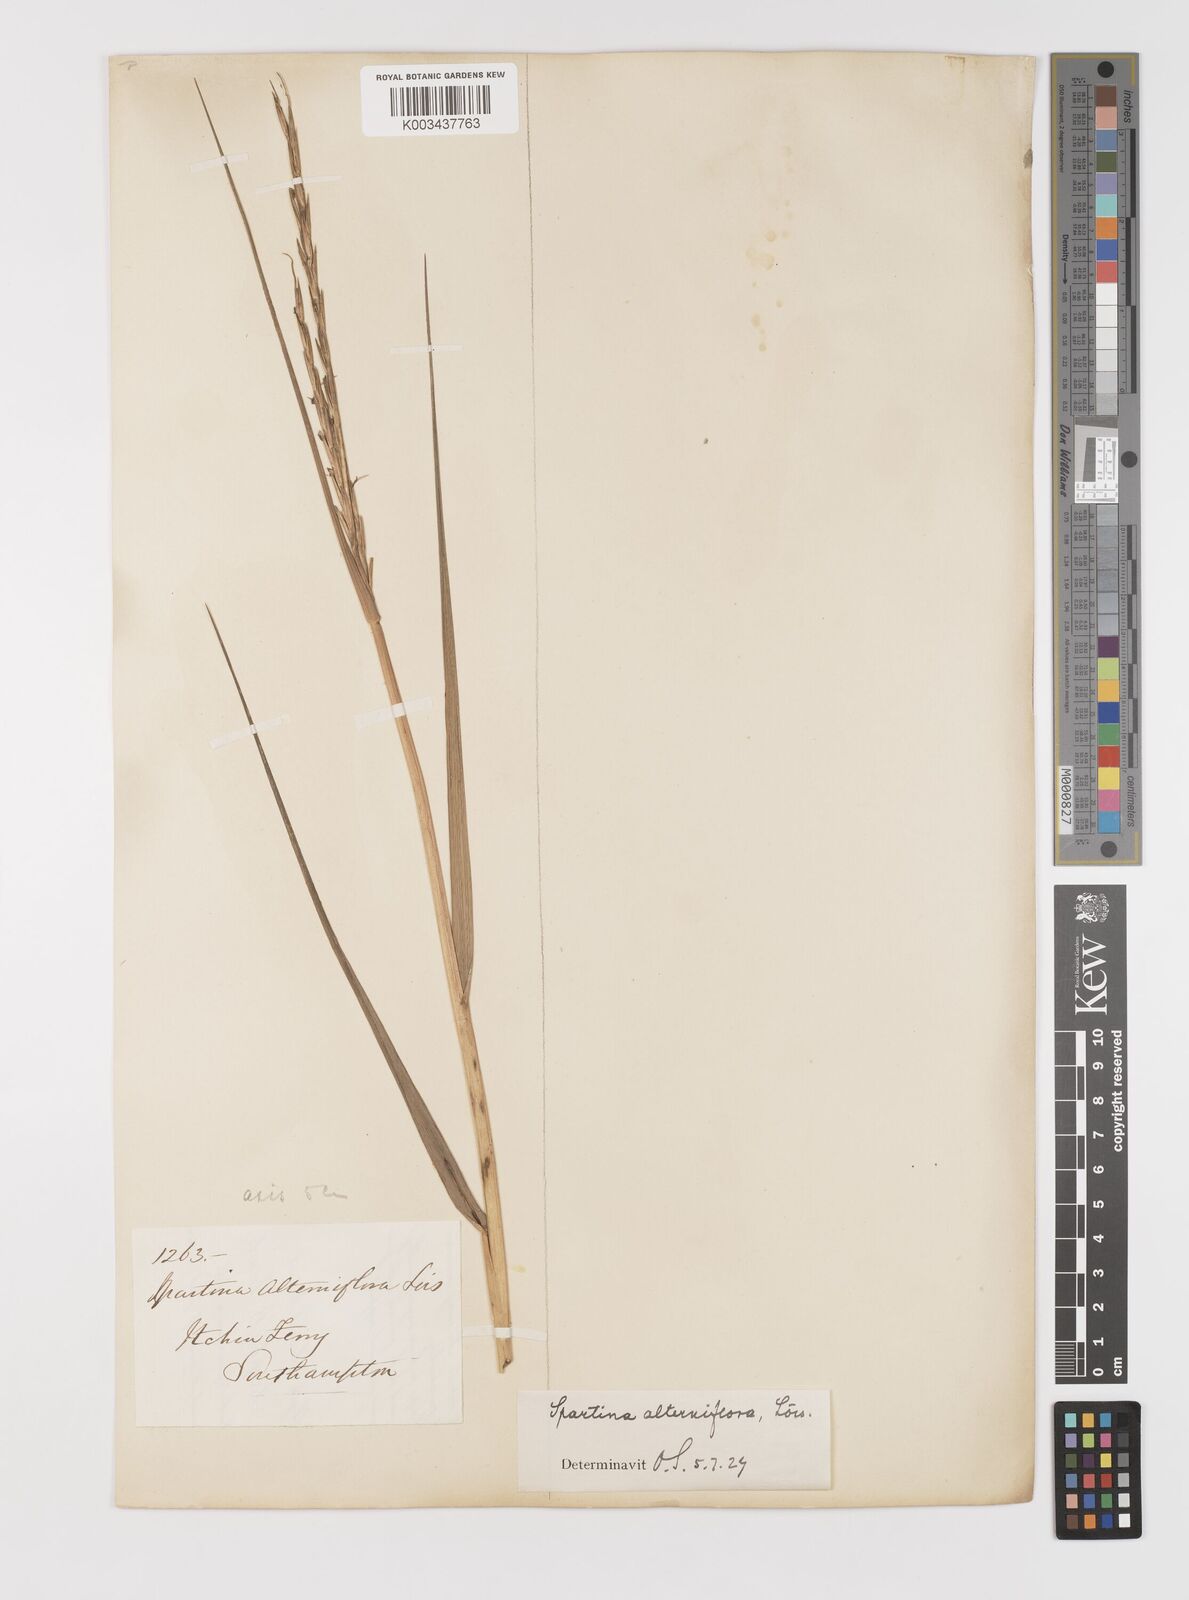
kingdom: Plantae
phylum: Tracheophyta
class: Liliopsida
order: Poales
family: Poaceae
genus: Sporobolus
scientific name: Sporobolus alterniflorus
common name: Atlantic cordgrass
